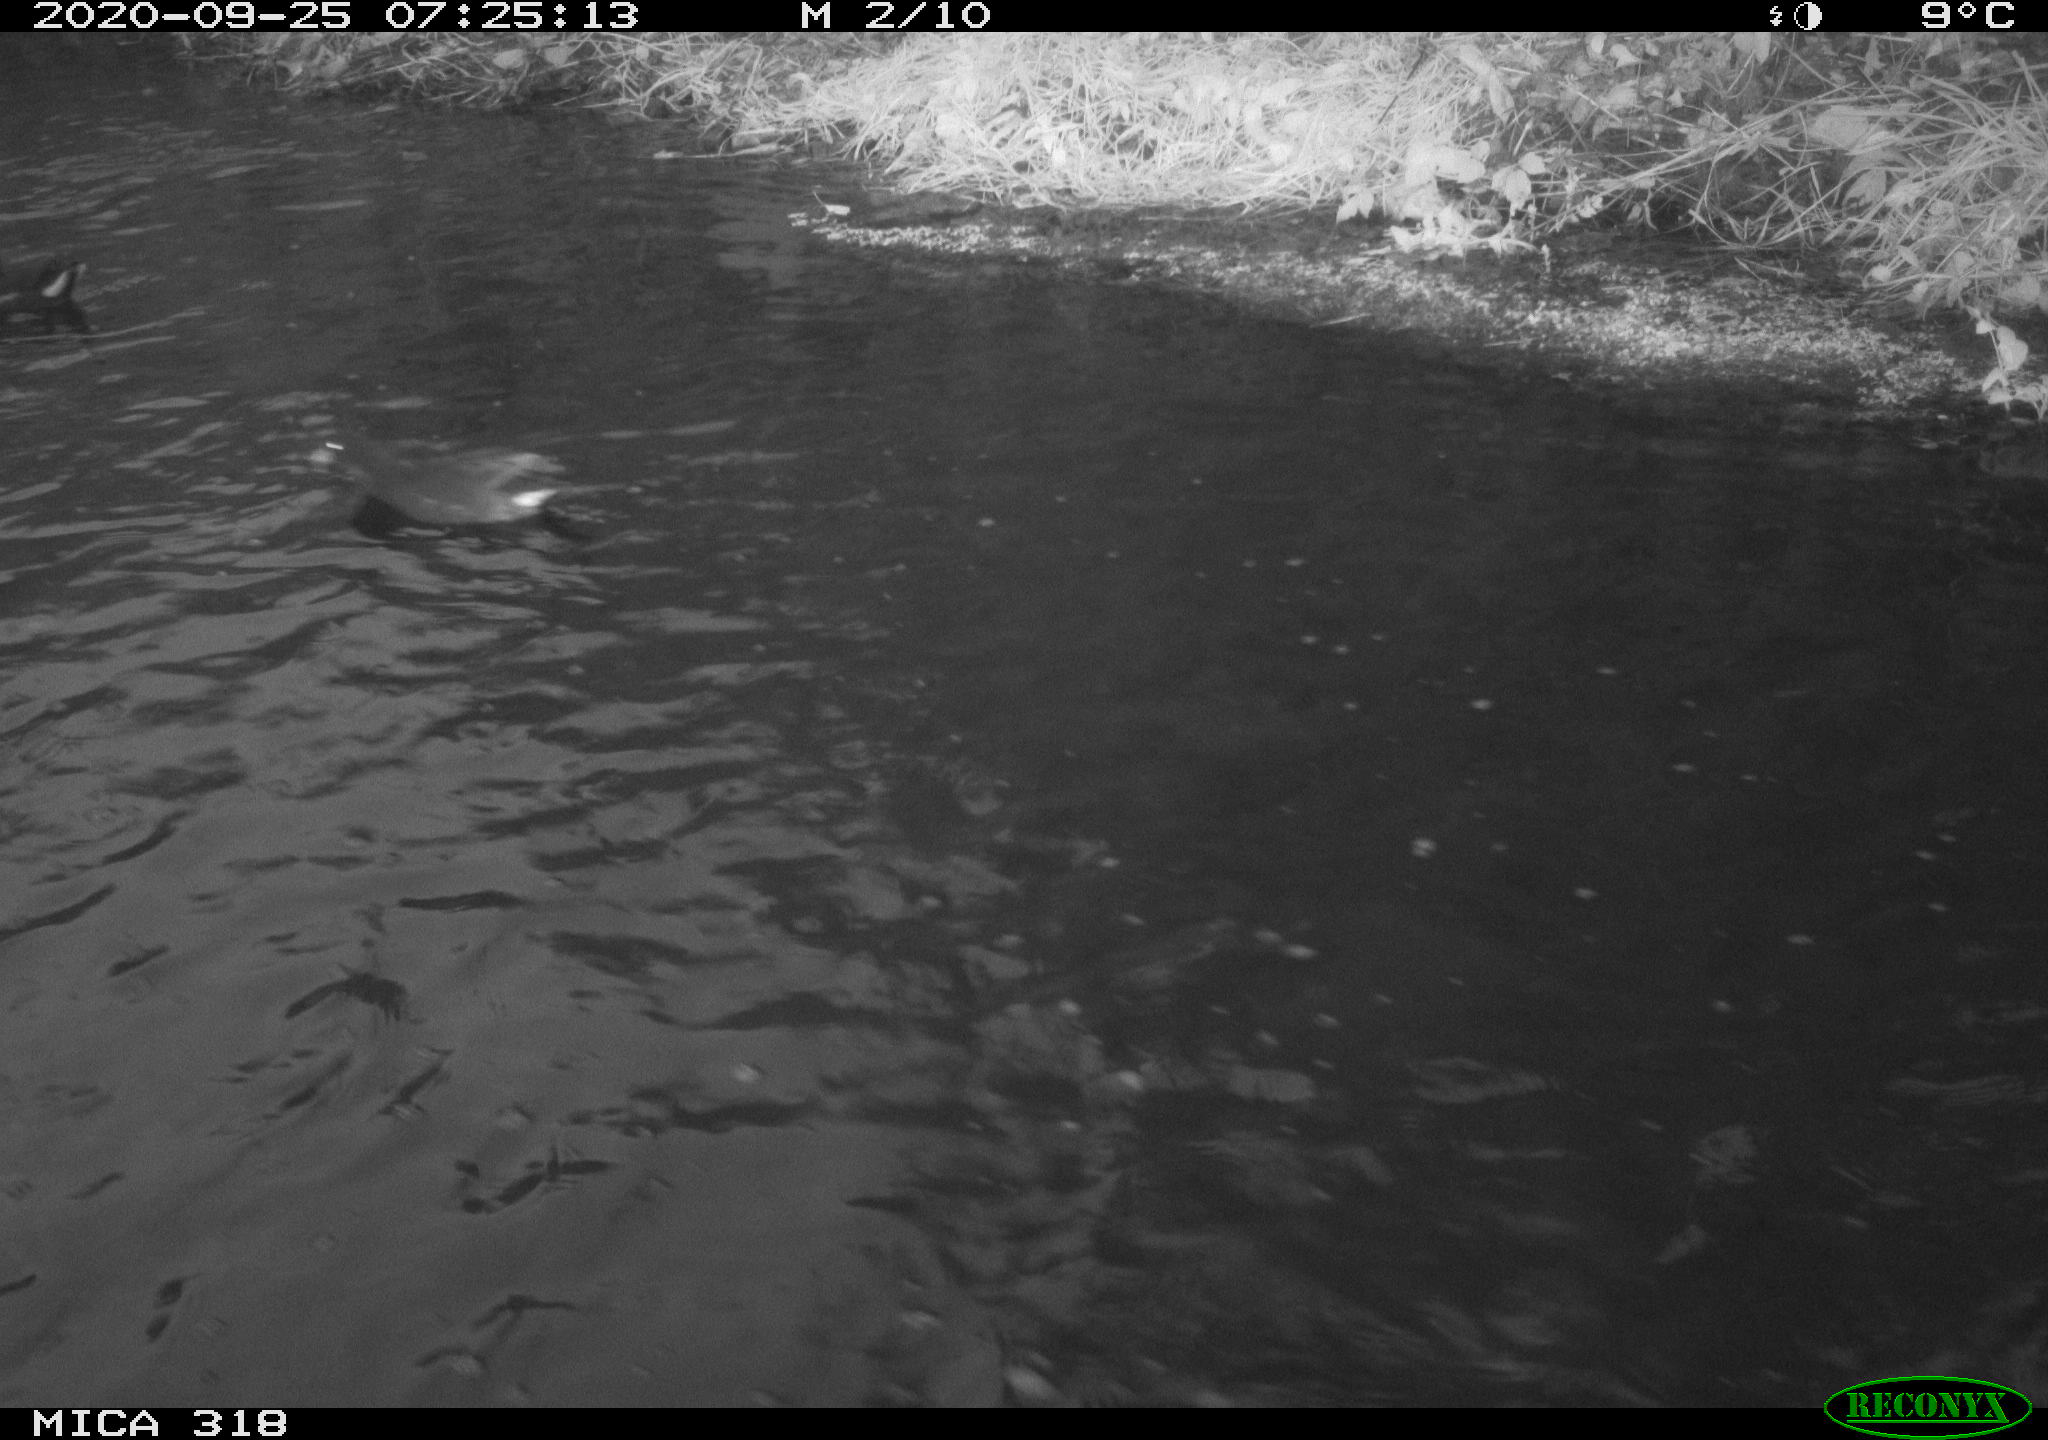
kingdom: Animalia
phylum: Chordata
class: Aves
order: Gruiformes
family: Rallidae
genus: Gallinula
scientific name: Gallinula chloropus
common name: Common moorhen
